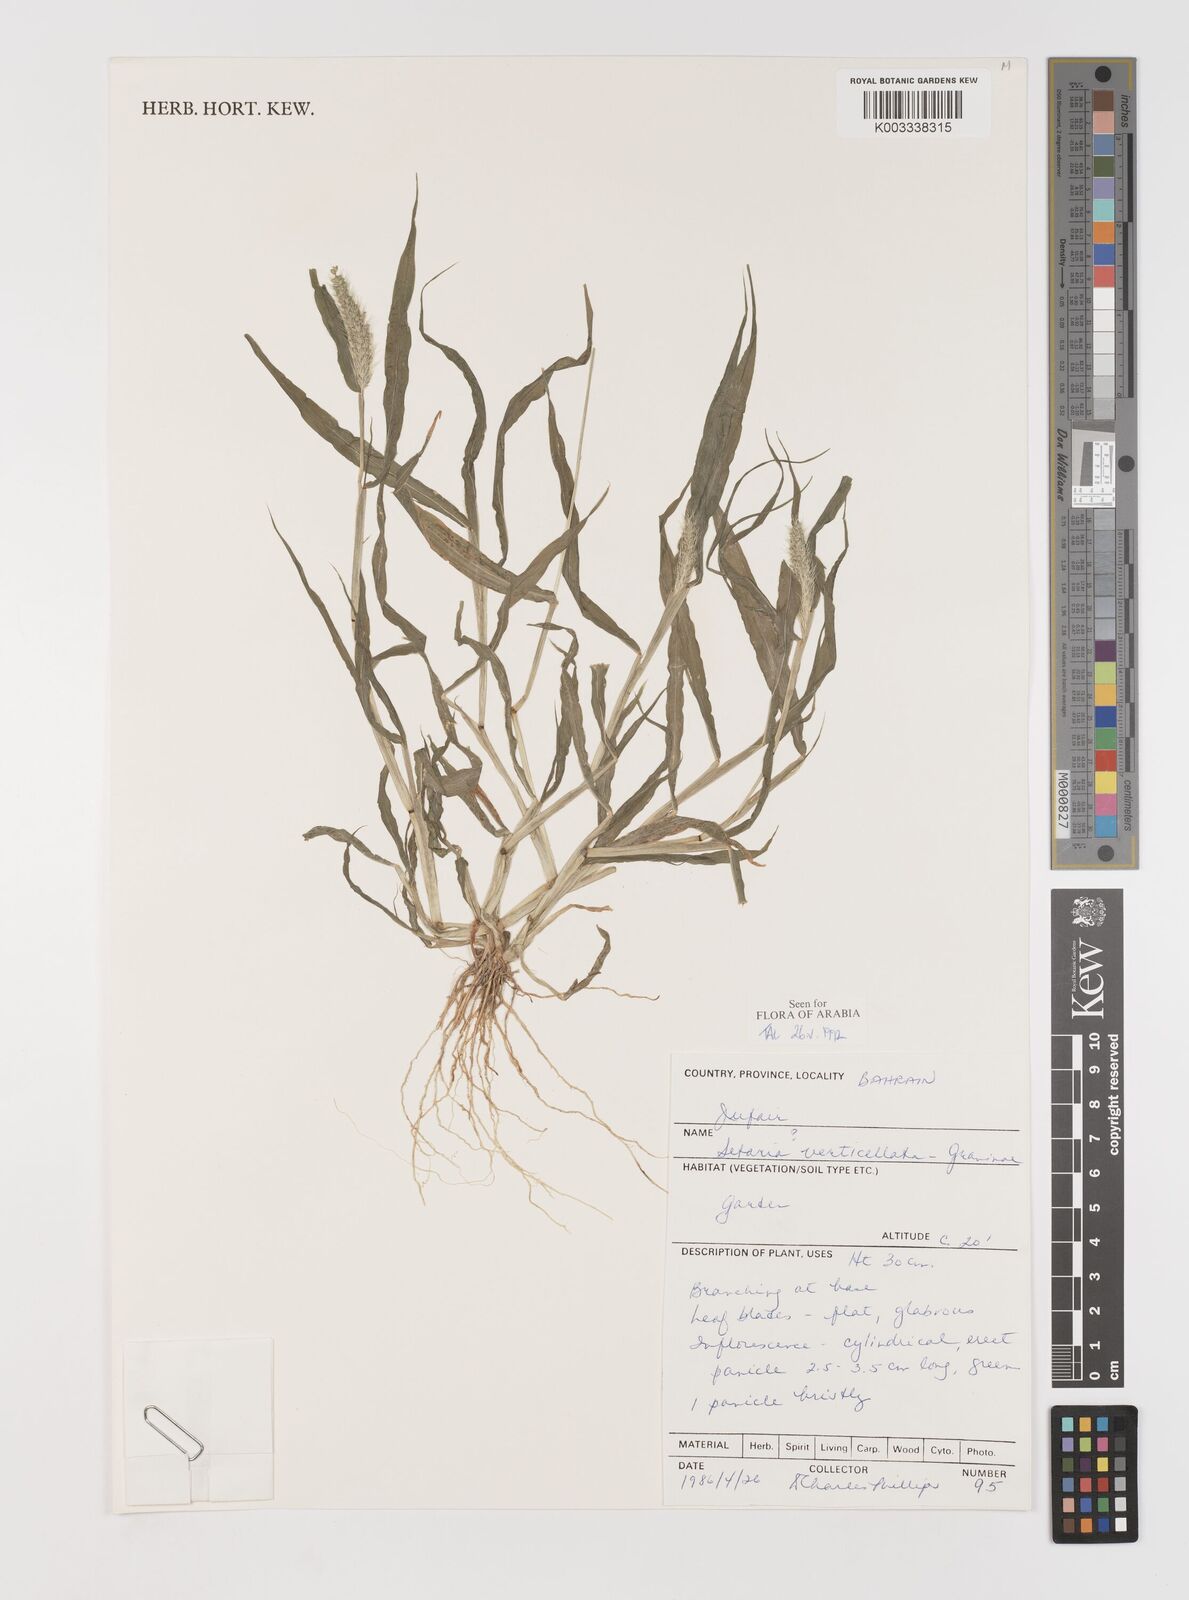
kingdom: Plantae
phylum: Tracheophyta
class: Liliopsida
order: Poales
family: Poaceae
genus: Setaria
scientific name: Setaria verticillata
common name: Hooked bristlegrass
